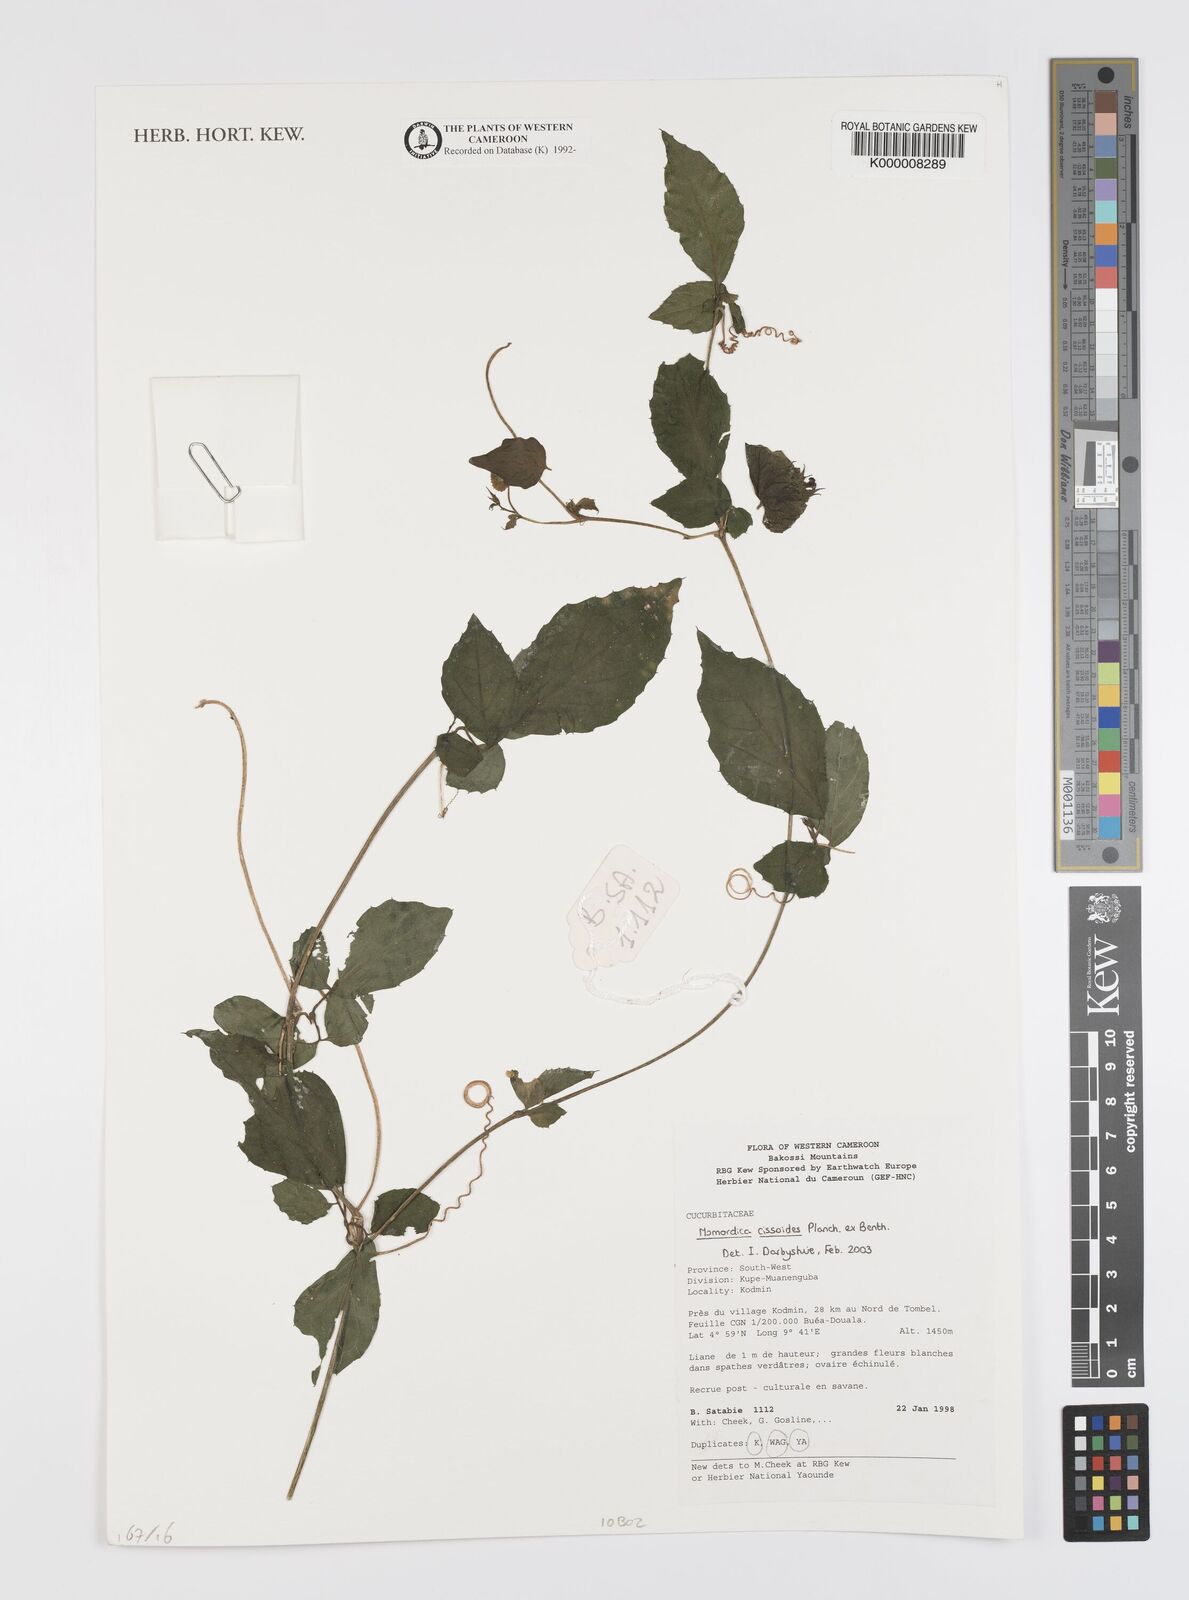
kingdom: Plantae
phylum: Tracheophyta
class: Magnoliopsida
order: Cucurbitales
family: Cucurbitaceae
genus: Momordica
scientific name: Momordica cissoides
